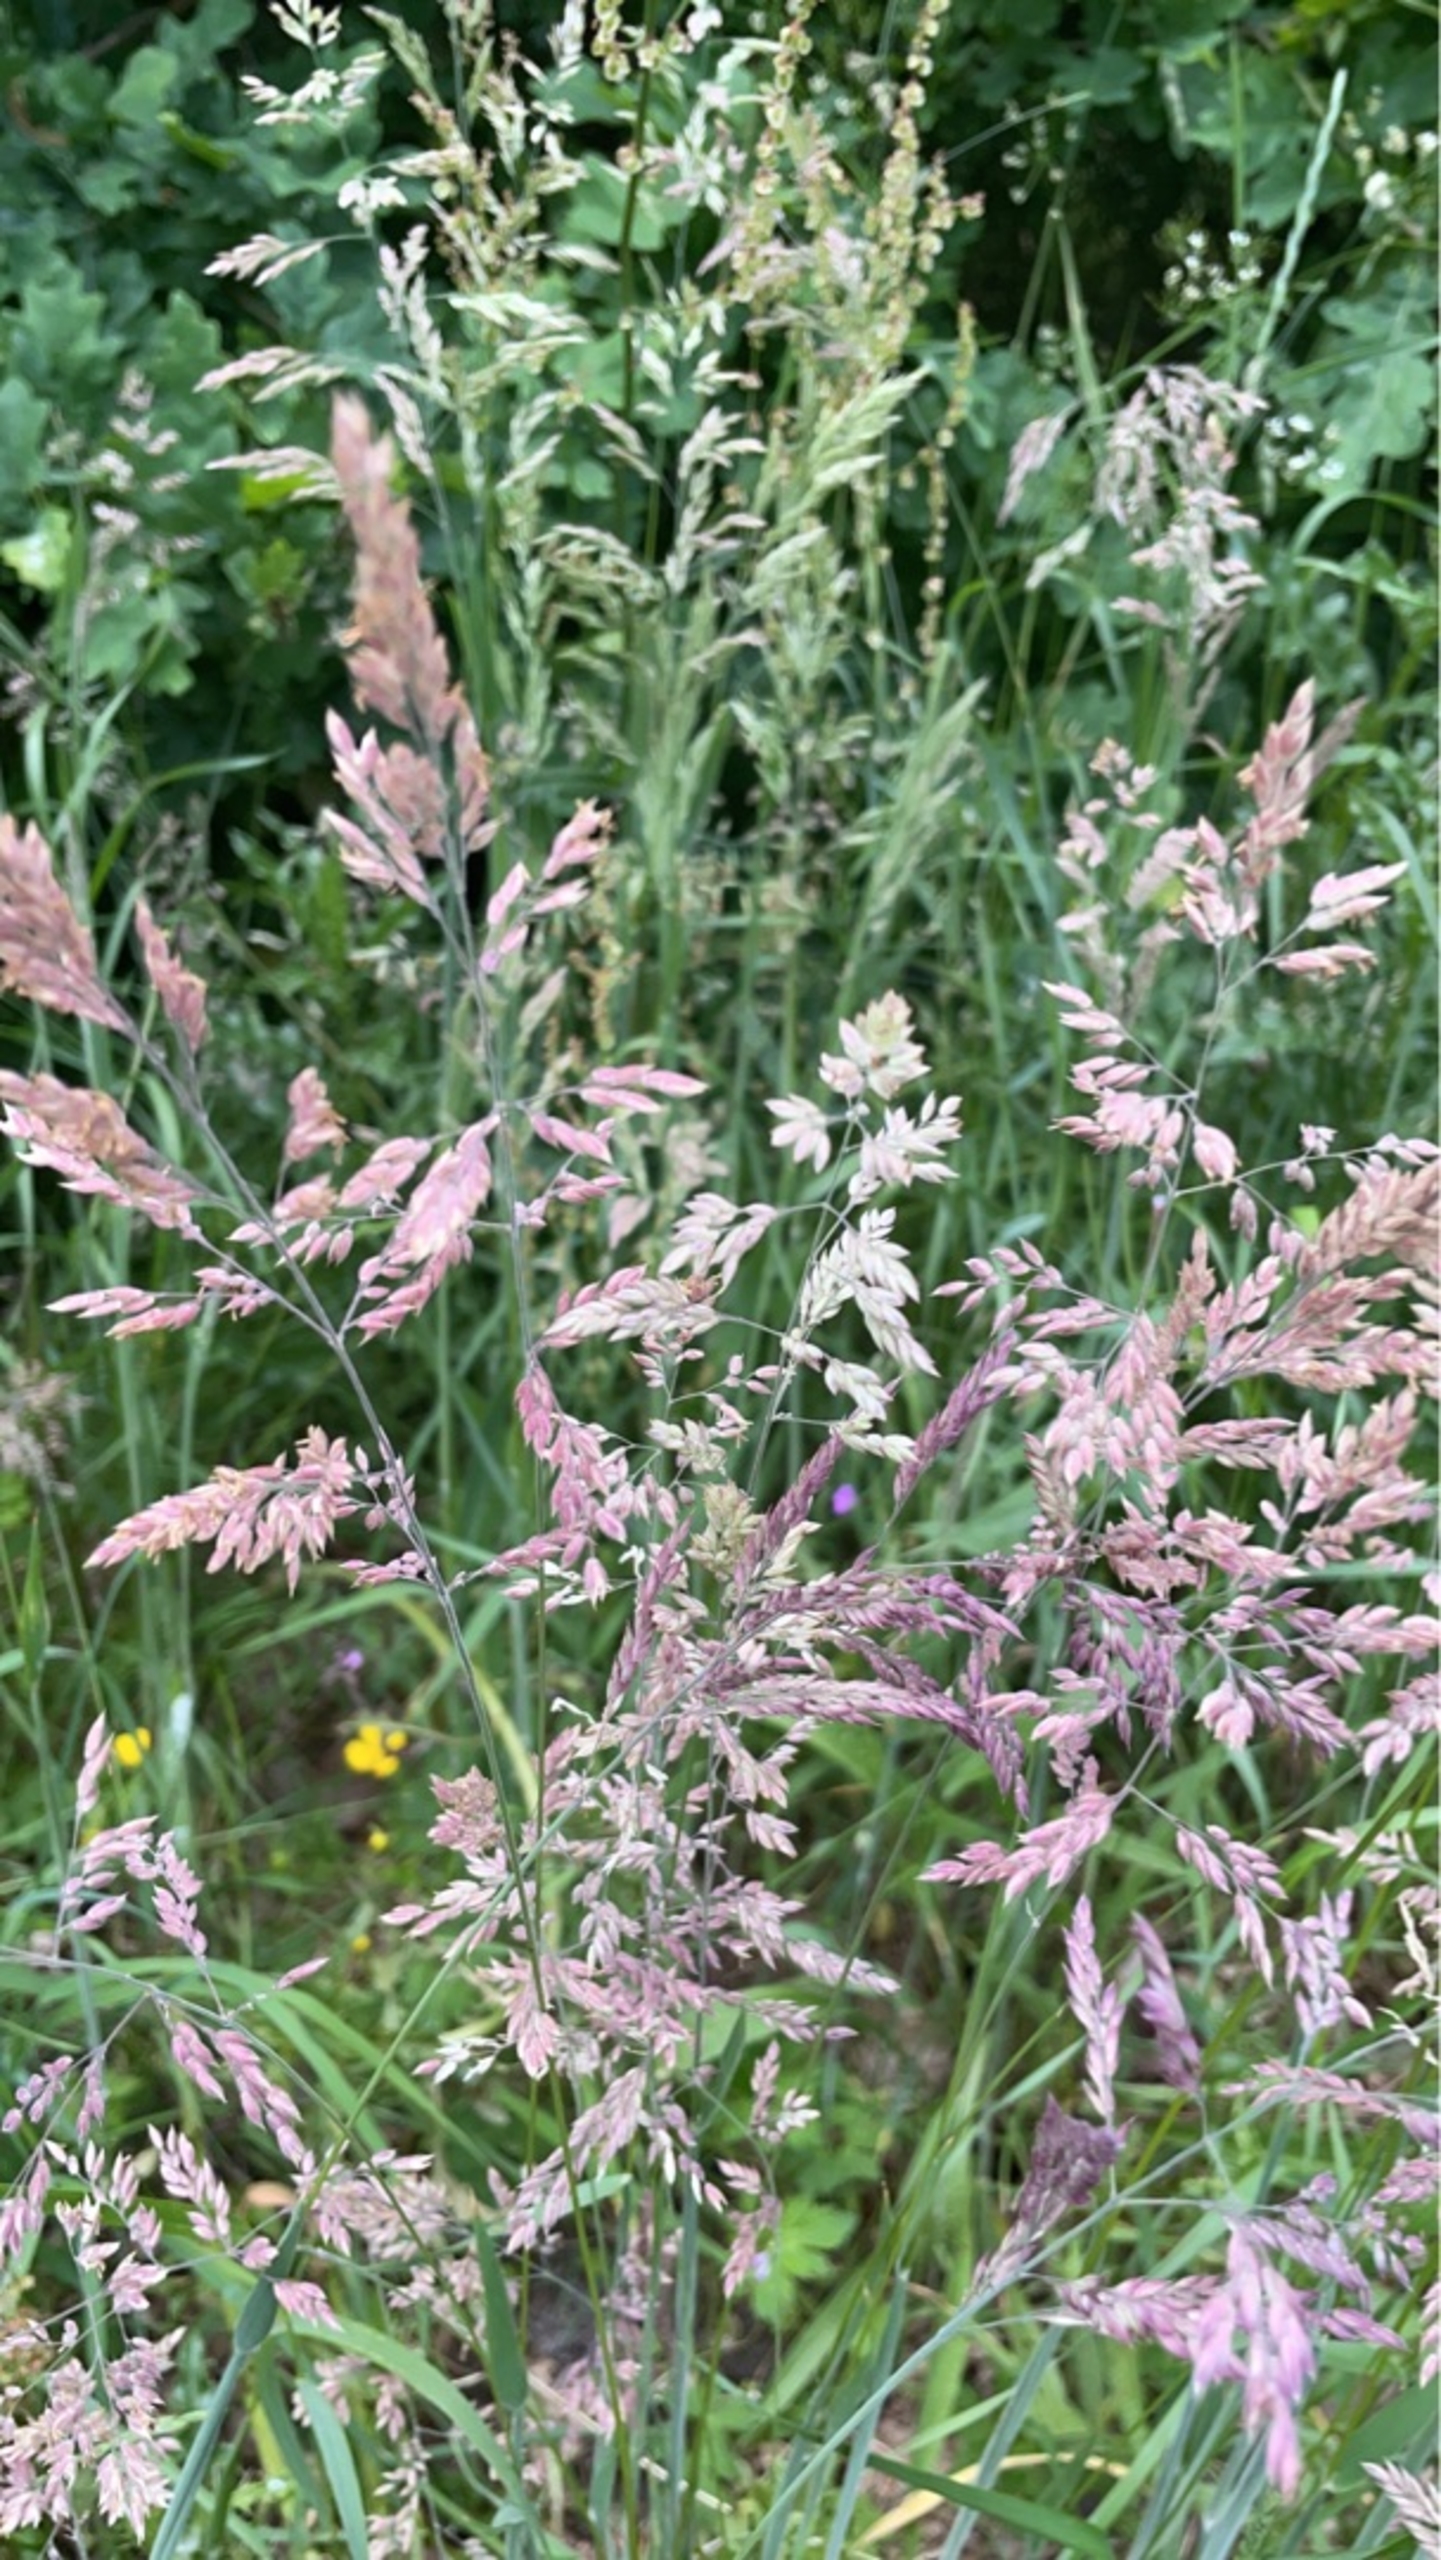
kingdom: Plantae
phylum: Tracheophyta
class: Liliopsida
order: Poales
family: Poaceae
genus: Holcus
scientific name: Holcus lanatus
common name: Fløjlsgræs
